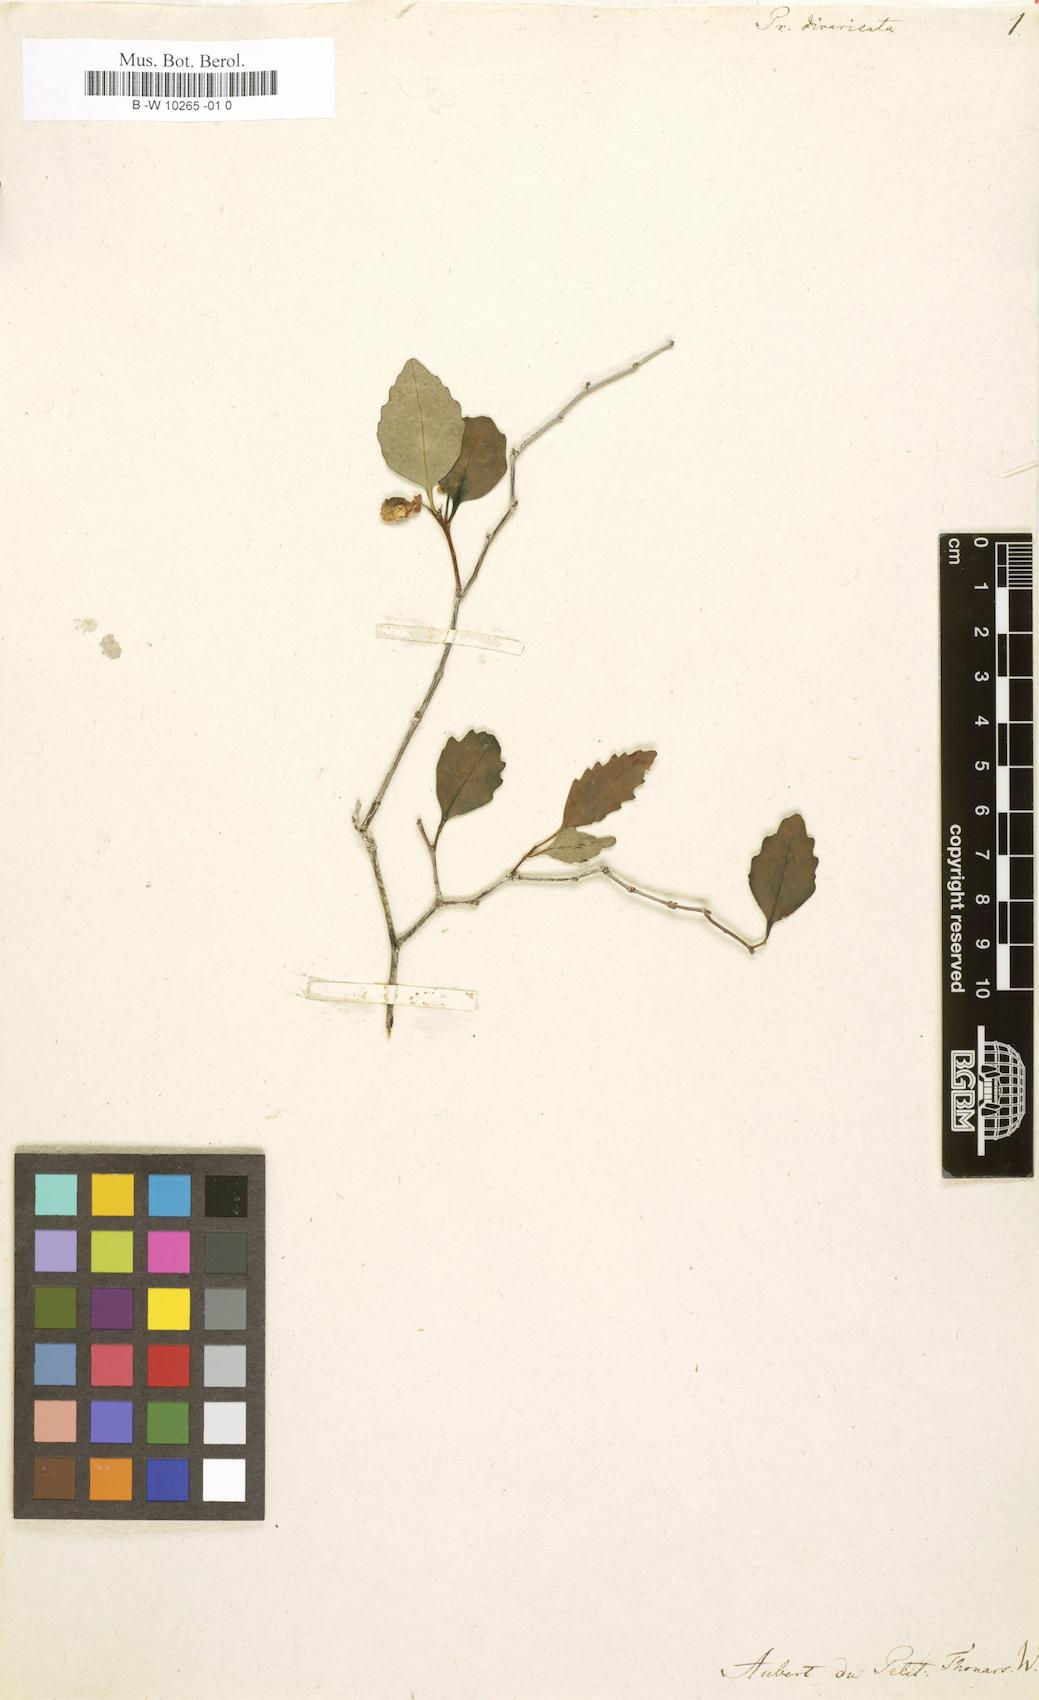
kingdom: Plantae
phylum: Tracheophyta
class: Magnoliopsida
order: Malpighiales
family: Salicaceae
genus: Prockia
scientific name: Prockia
